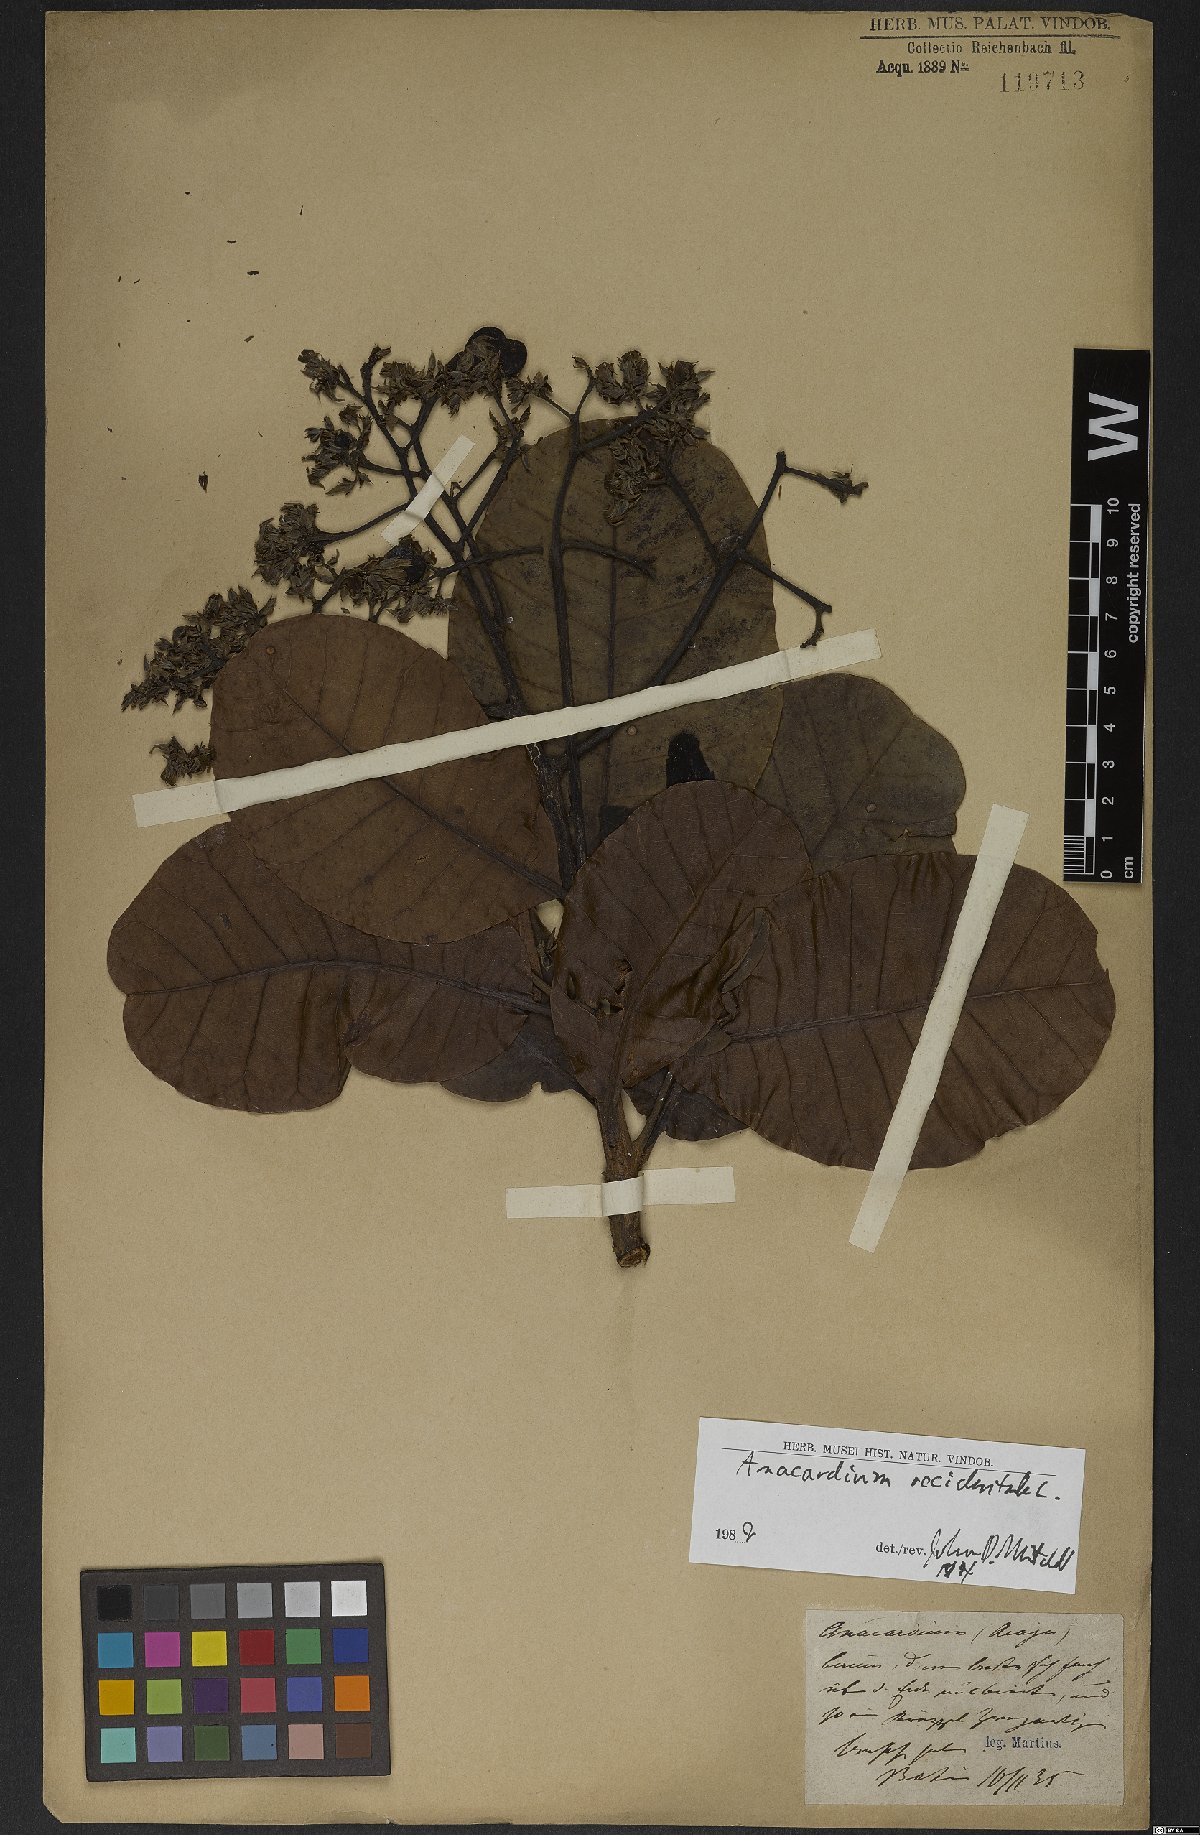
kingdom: Plantae
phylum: Tracheophyta
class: Magnoliopsida
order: Sapindales
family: Anacardiaceae
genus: Anacardium
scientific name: Anacardium occidentale
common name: Cashew
